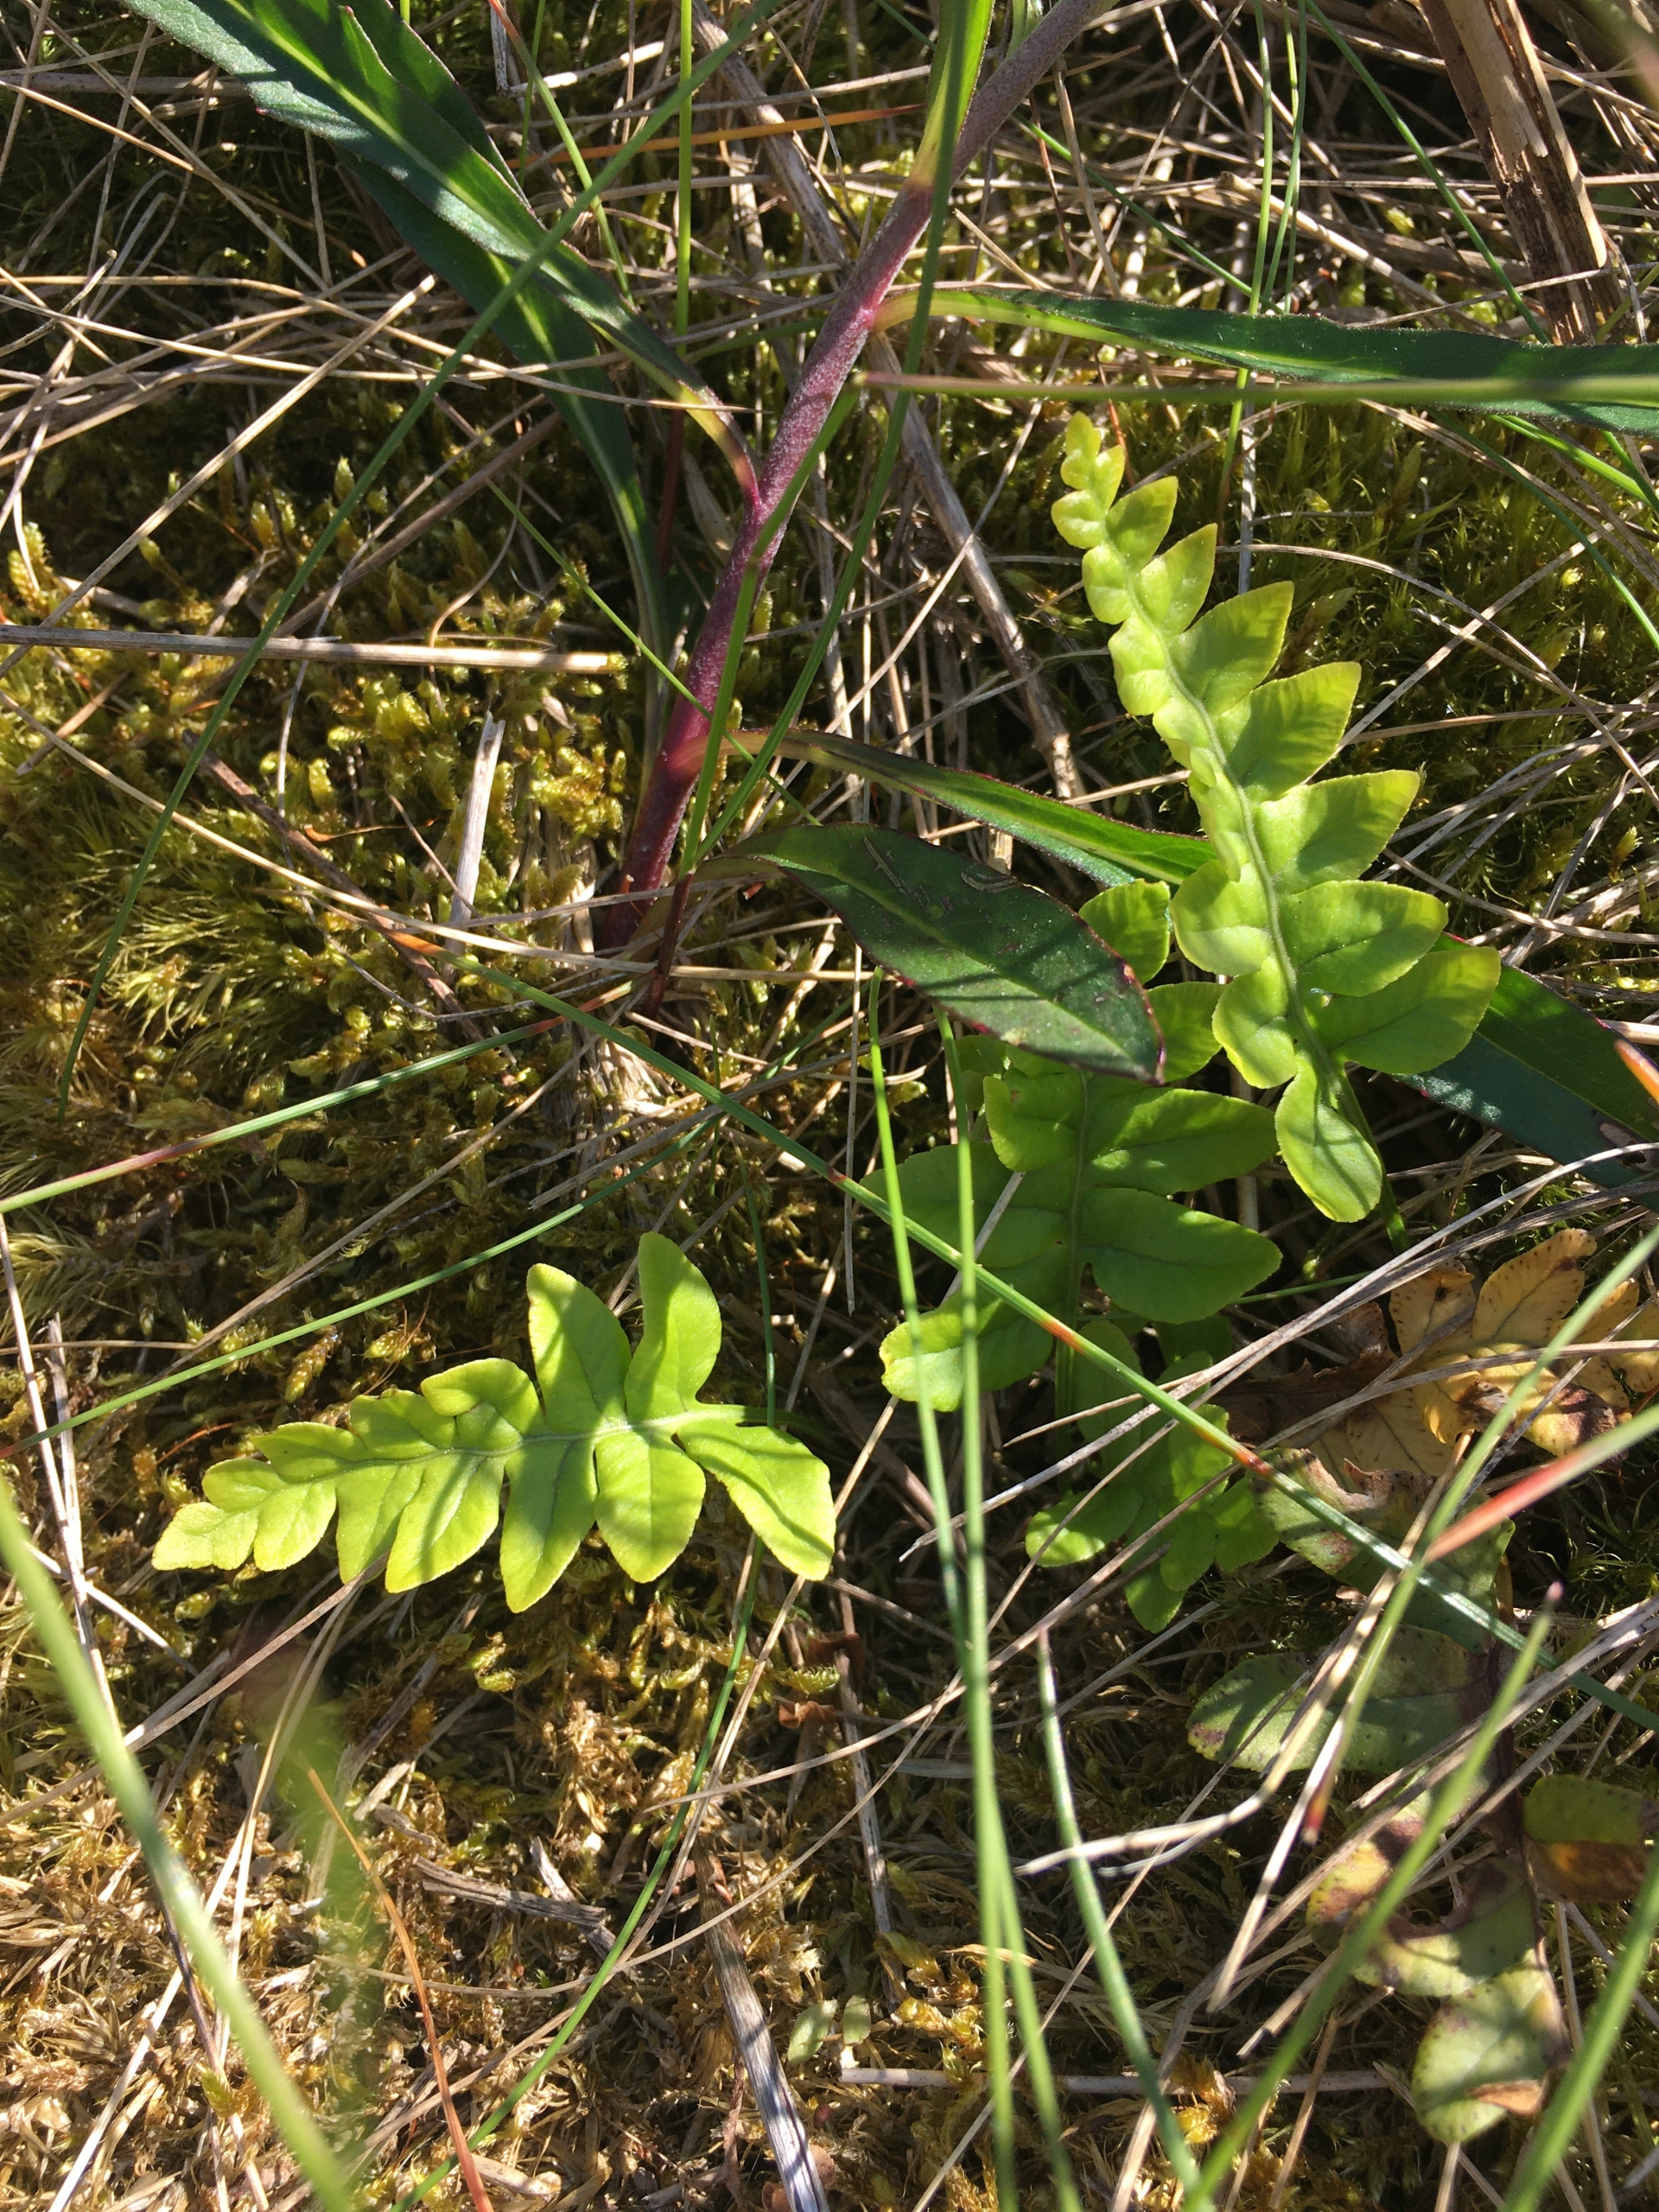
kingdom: Plantae
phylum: Tracheophyta
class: Polypodiopsida
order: Polypodiales
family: Polypodiaceae
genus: Polypodium
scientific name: Polypodium vulgare
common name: Almindelig engelsød
